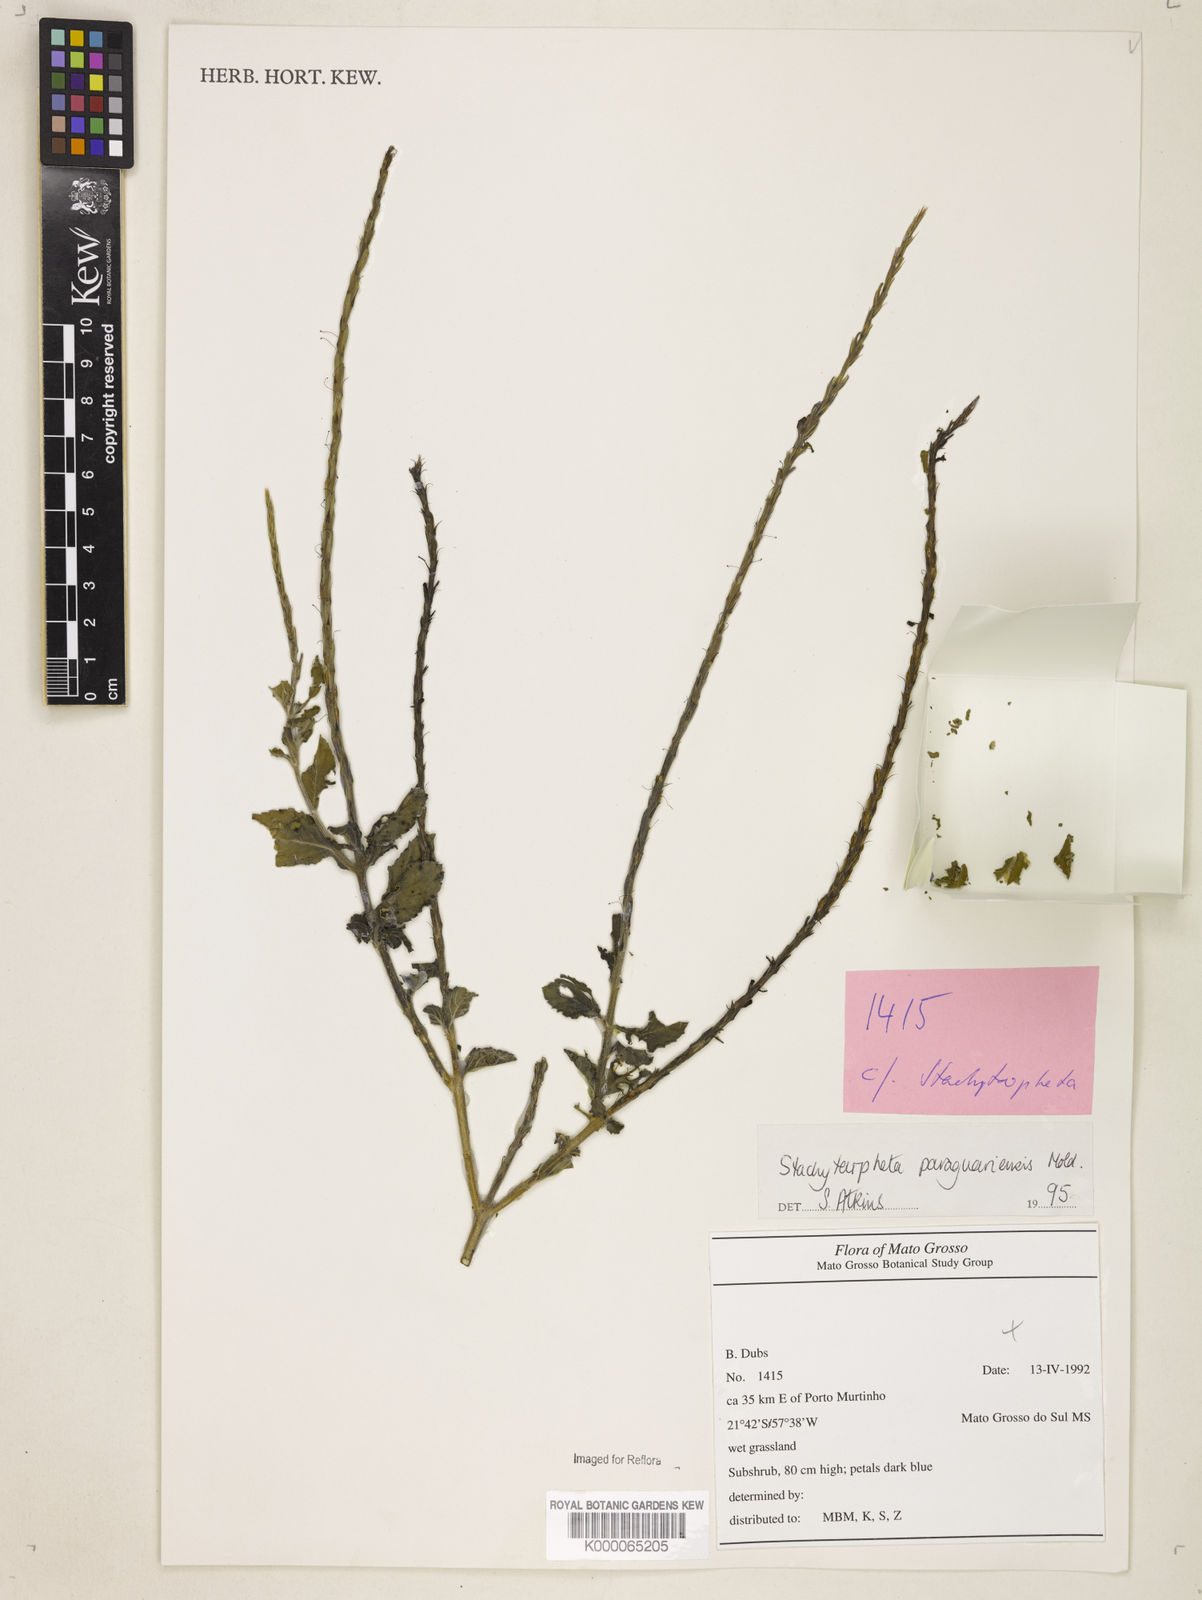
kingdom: Plantae
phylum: Tracheophyta
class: Magnoliopsida
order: Lamiales
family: Verbenaceae
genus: Stachytarpheta
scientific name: Stachytarpheta paraguariensis
